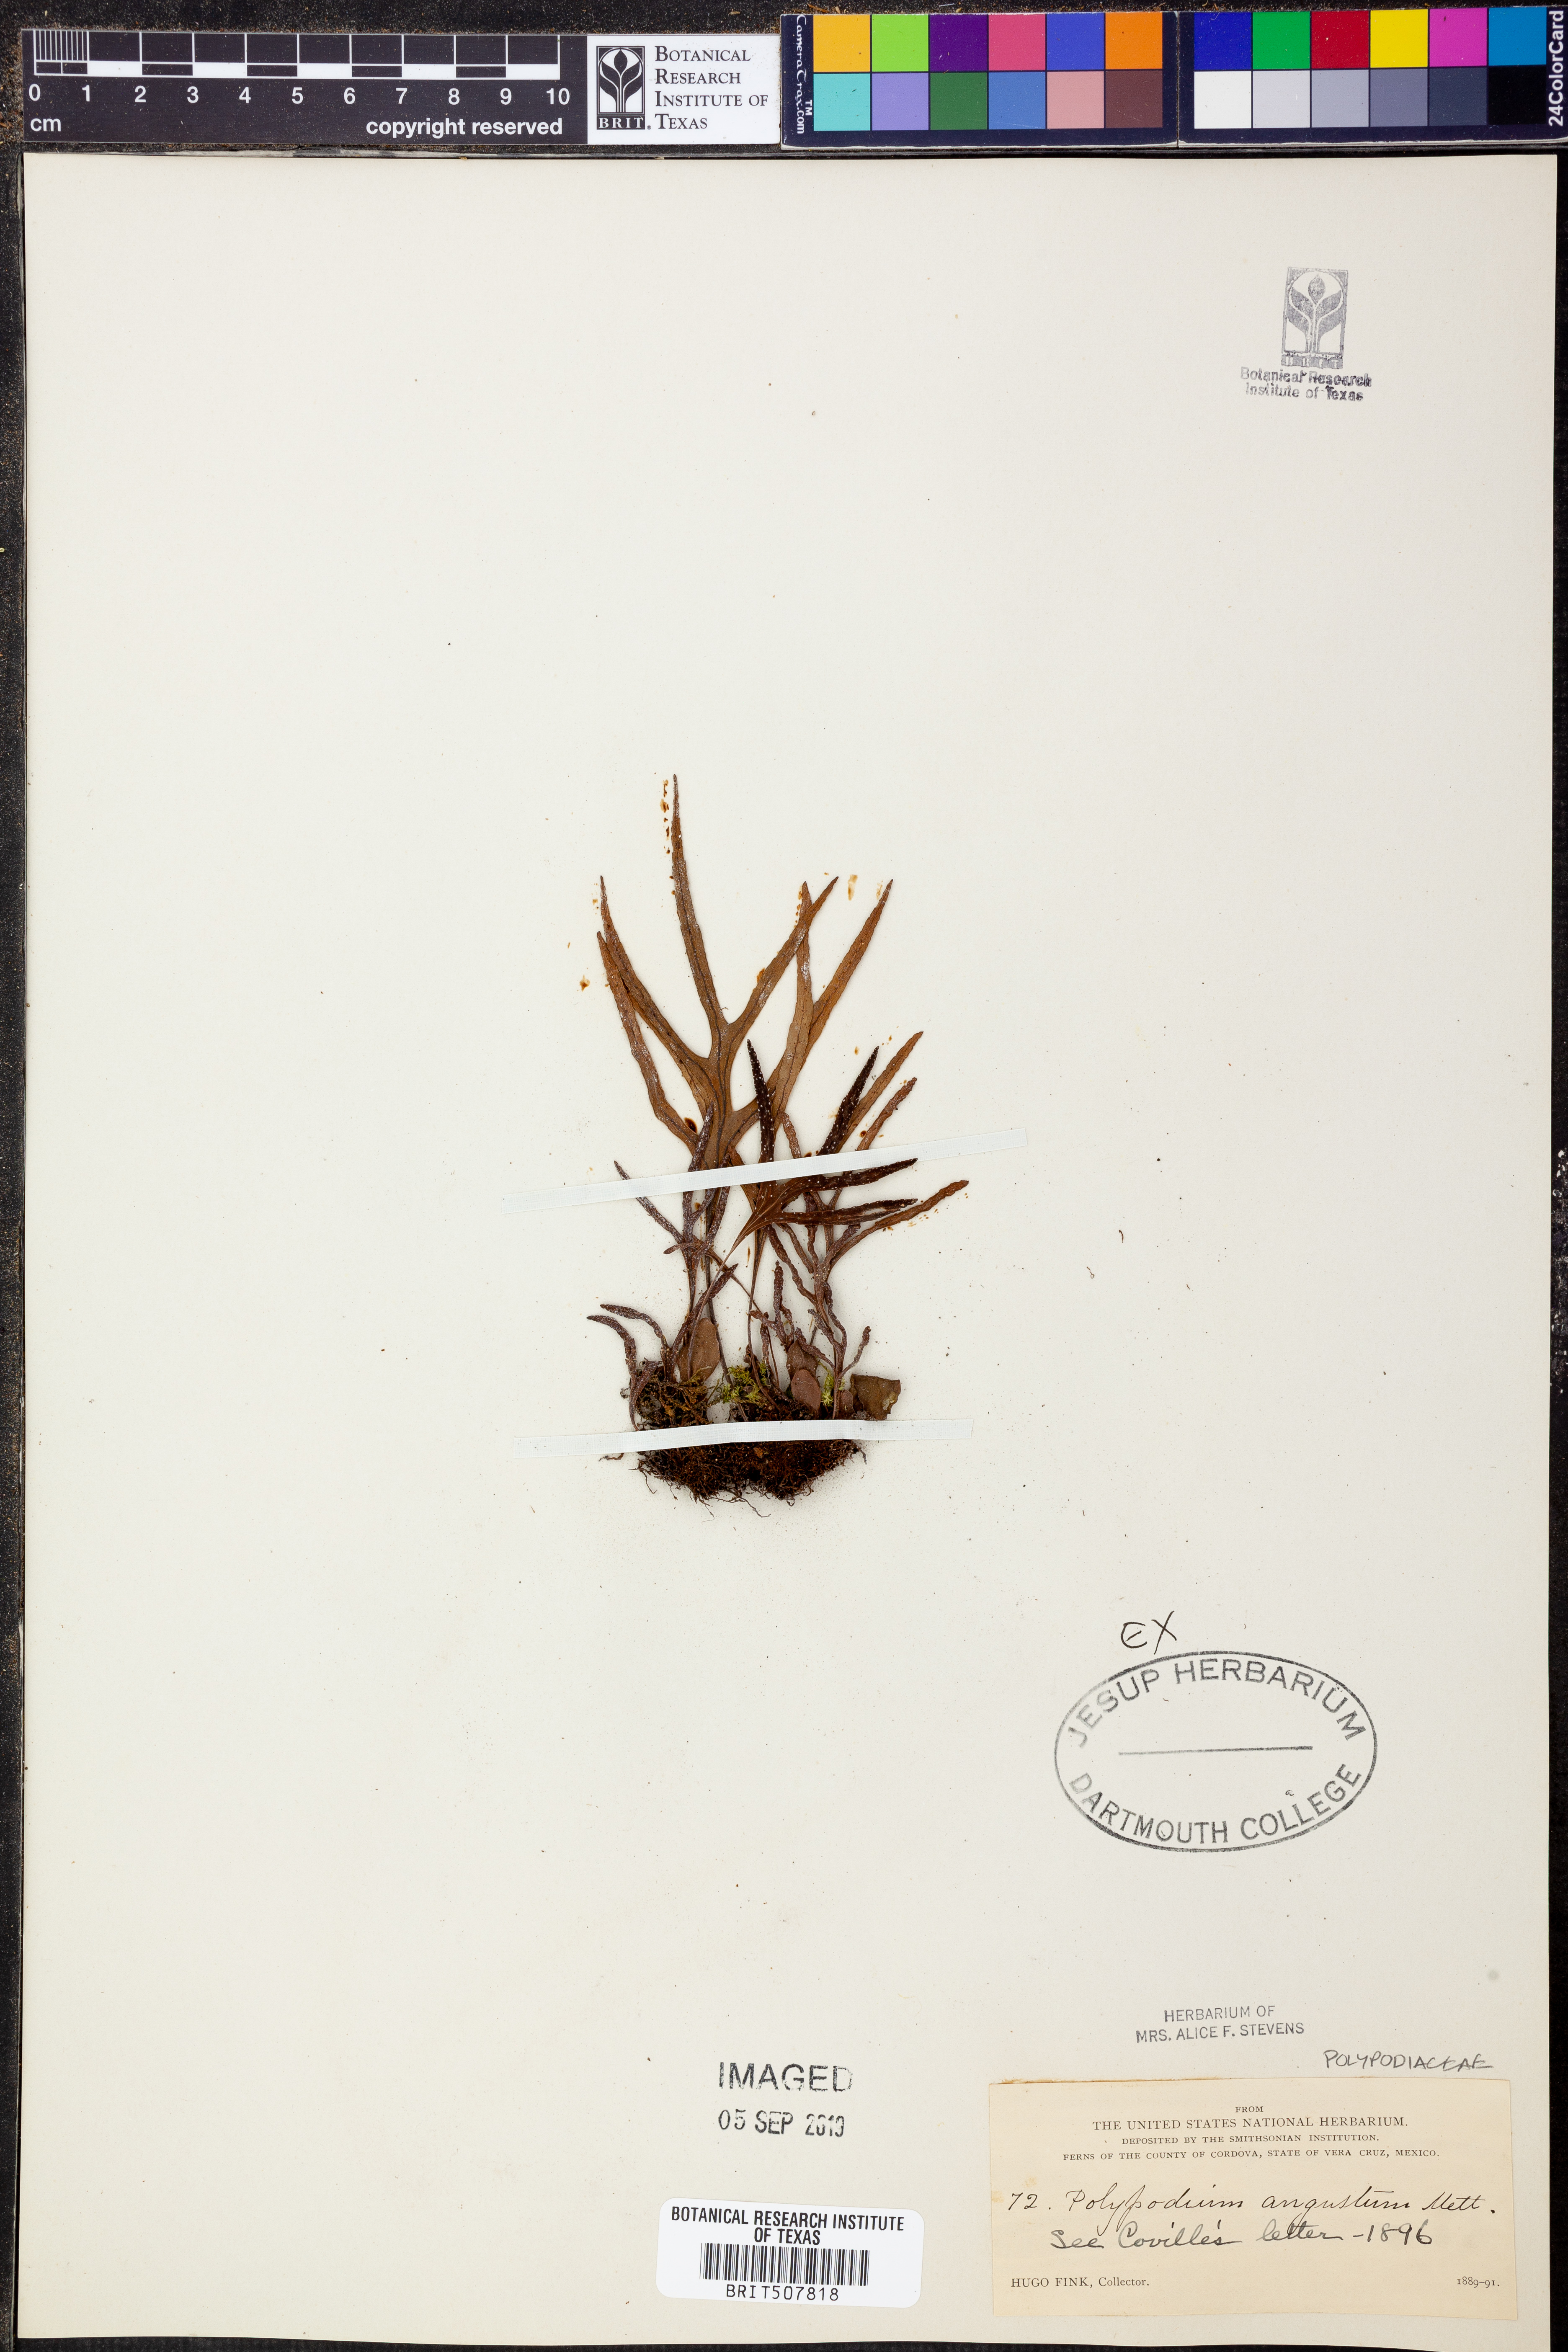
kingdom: Plantae
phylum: Tracheophyta
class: Polypodiopsida
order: Polypodiales
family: Polypodiaceae
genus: Pleopeltis
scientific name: Pleopeltis angusta
